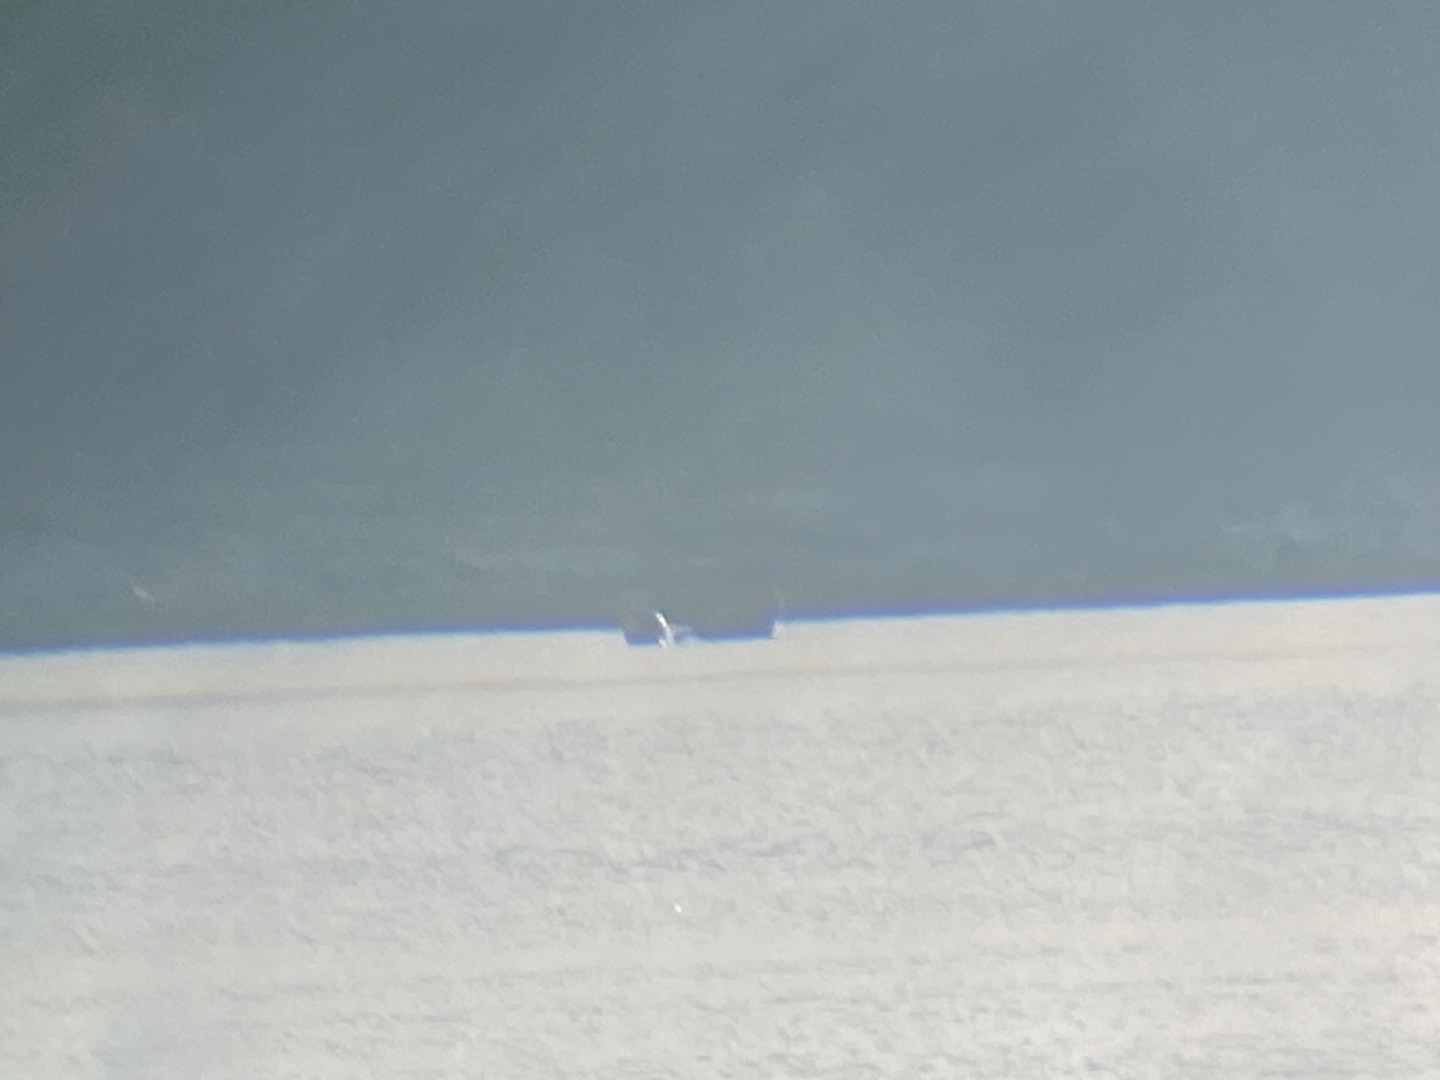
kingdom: Animalia
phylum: Chordata
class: Mammalia
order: Carnivora
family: Phocidae
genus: Phoca
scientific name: Phoca vitulina
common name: Spættet sæl
